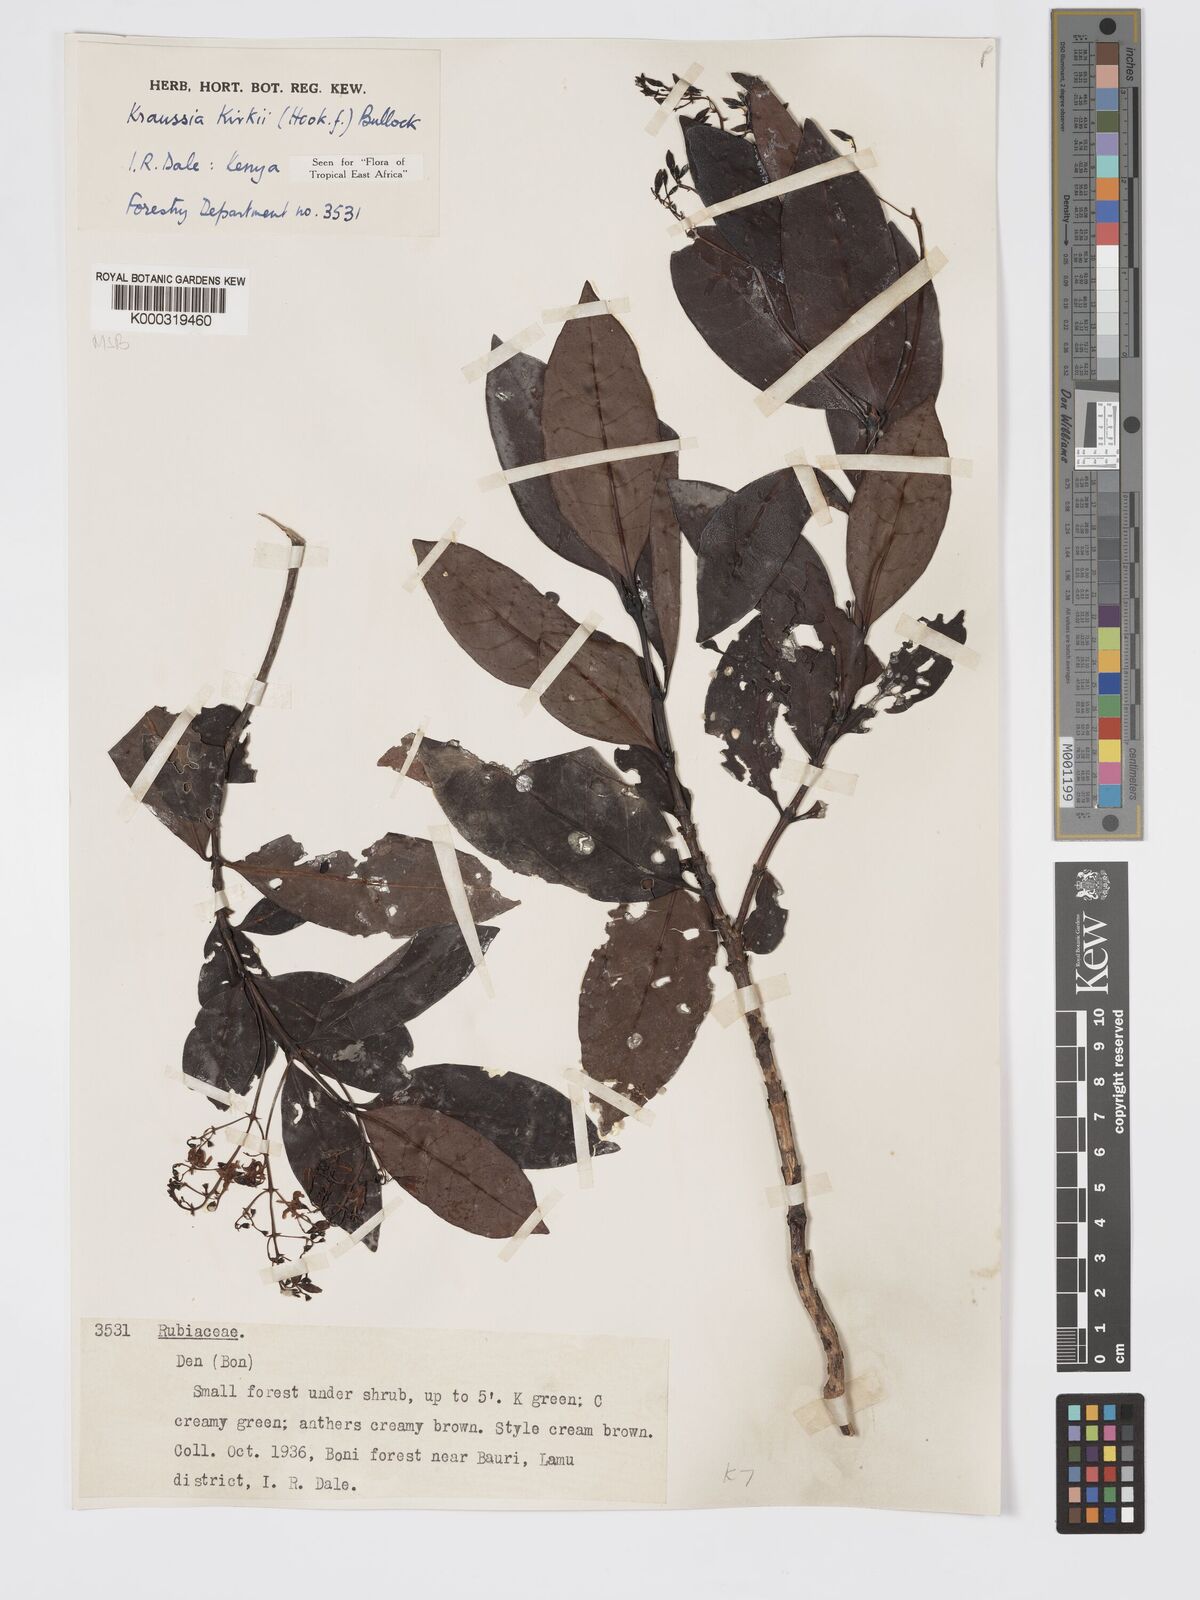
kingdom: Plantae
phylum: Tracheophyta
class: Magnoliopsida
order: Gentianales
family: Rubiaceae
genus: Kraussia
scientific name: Kraussia kirkii
